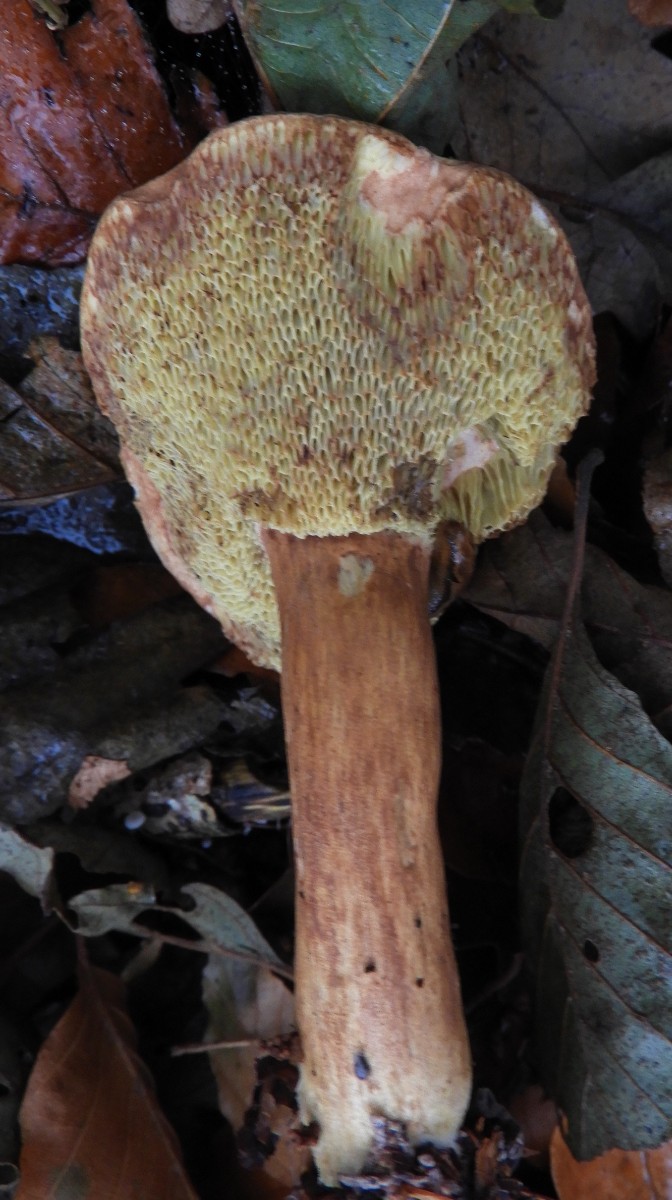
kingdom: Fungi
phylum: Basidiomycota
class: Agaricomycetes
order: Boletales
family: Boletaceae
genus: Imleria
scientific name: Imleria badia
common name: brunstokket rørhat
